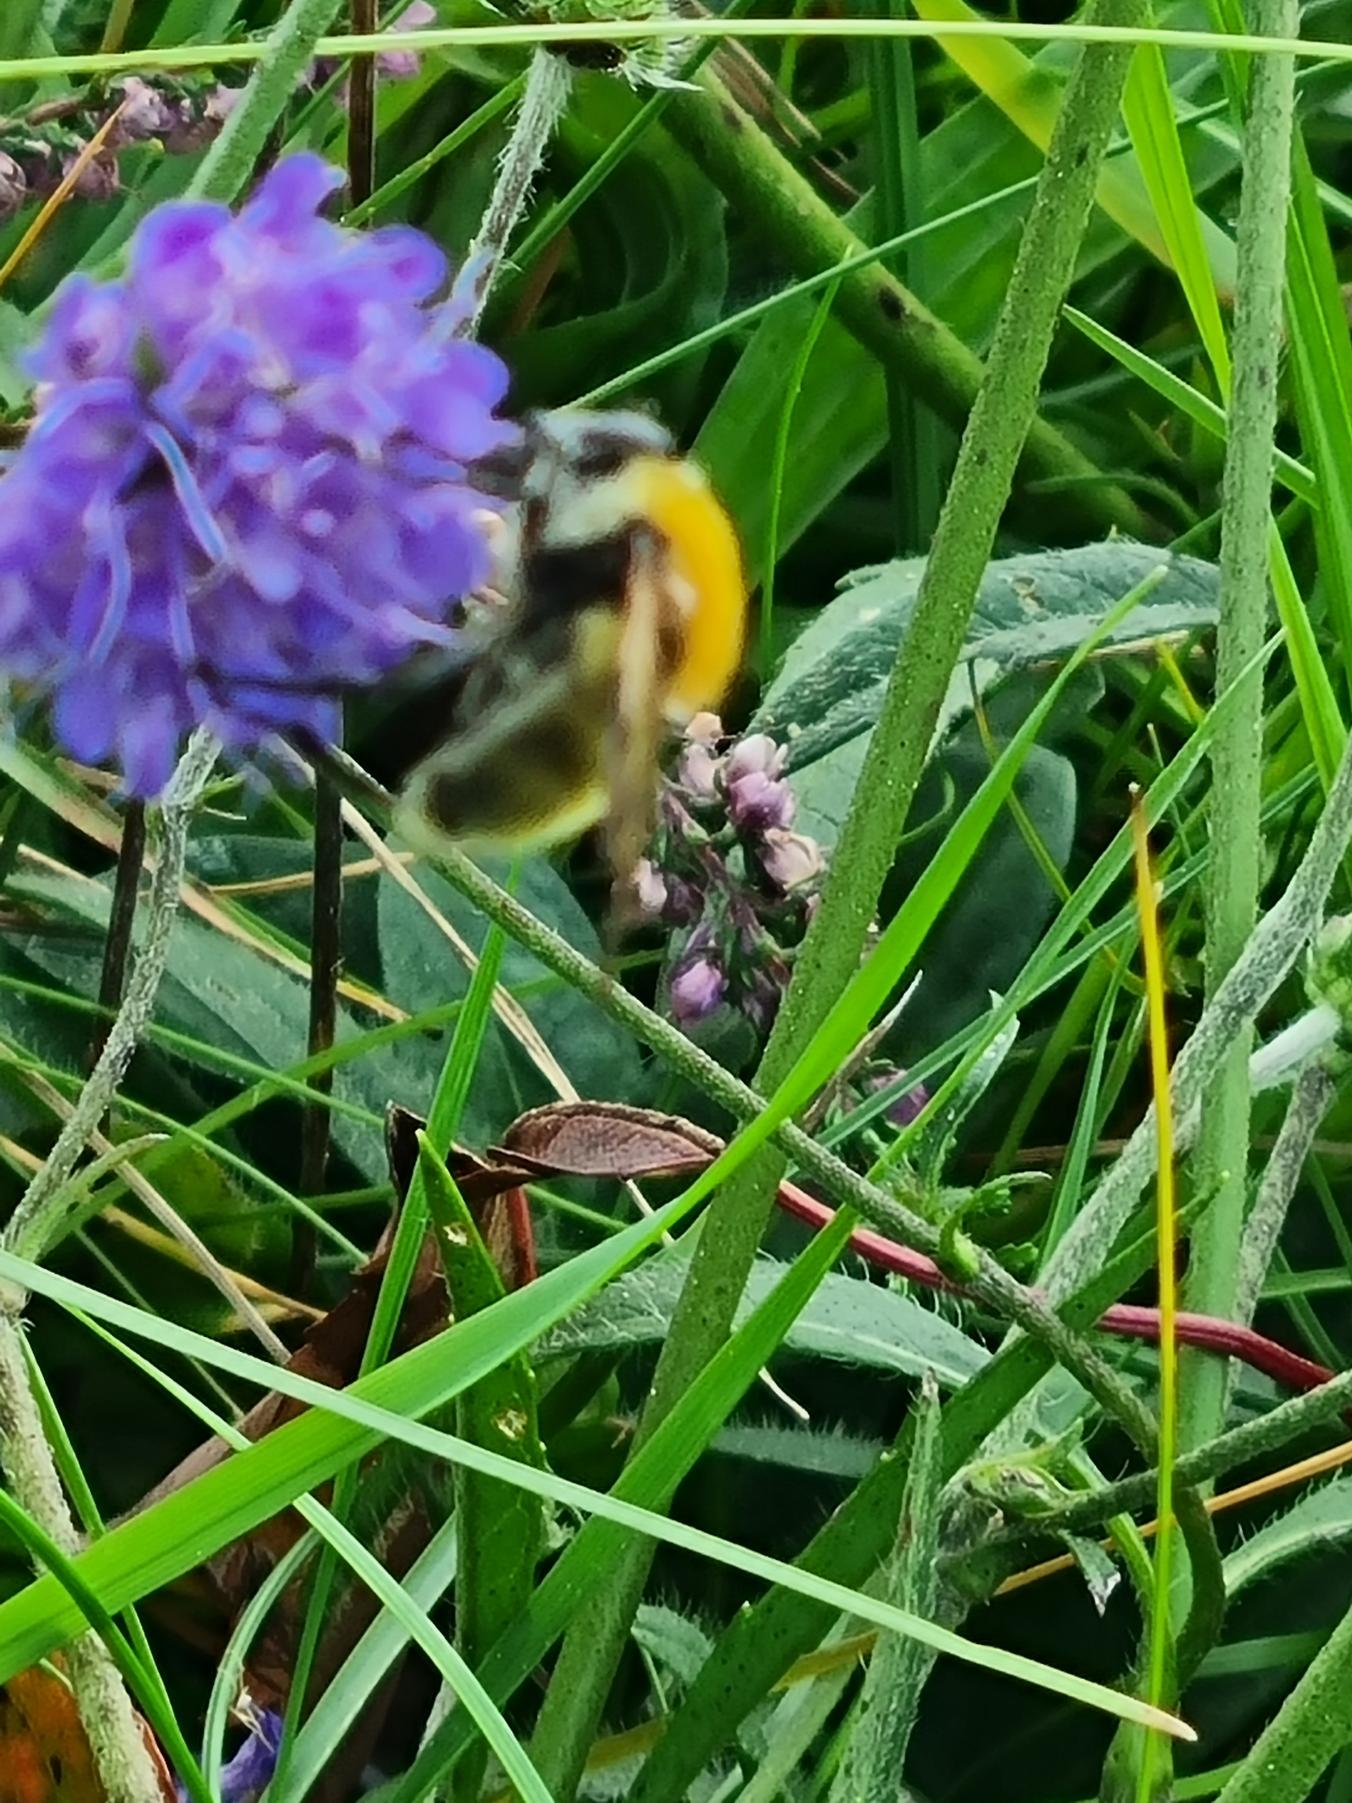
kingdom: Animalia
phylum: Arthropoda
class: Insecta
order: Diptera
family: Syrphidae
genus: Sericomyia
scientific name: Sericomyia superbiens
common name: Brun bjørnesvirreflue
